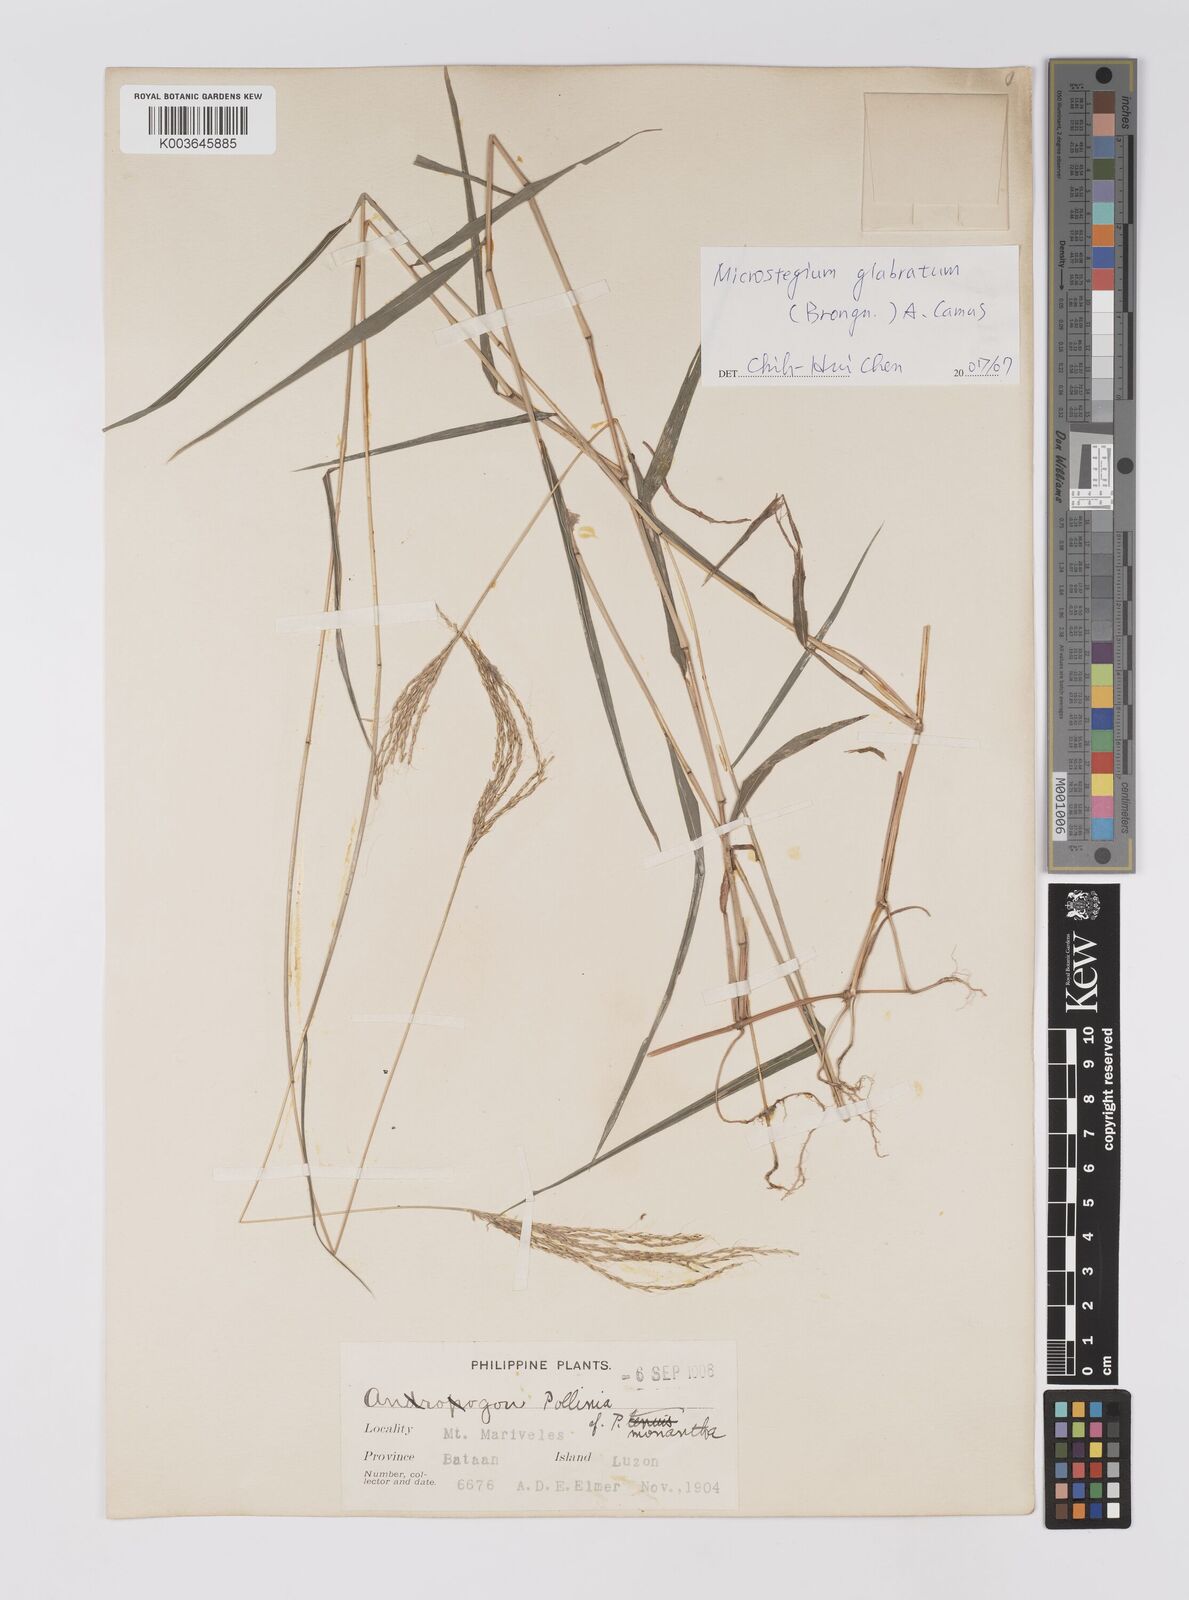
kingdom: Plantae
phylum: Tracheophyta
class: Liliopsida
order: Poales
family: Poaceae
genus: Microstegium
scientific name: Microstegium glabratum
